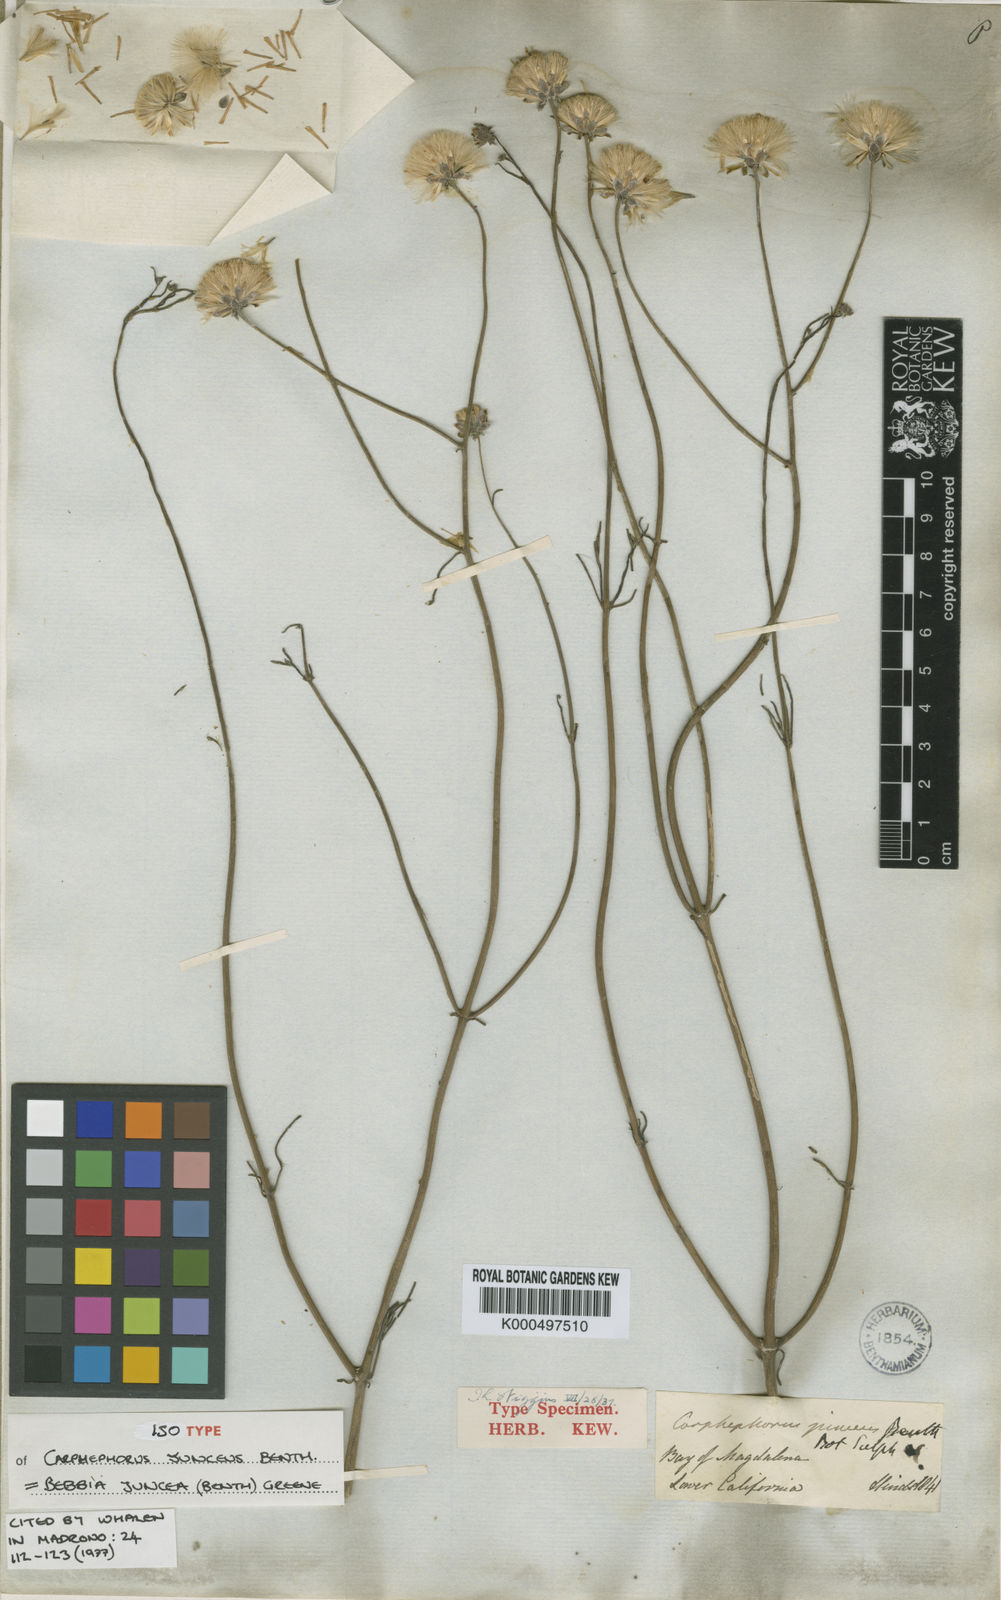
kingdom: Plantae
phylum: Tracheophyta
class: Magnoliopsida
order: Asterales
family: Asteraceae
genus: Bebbia
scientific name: Bebbia juncea
